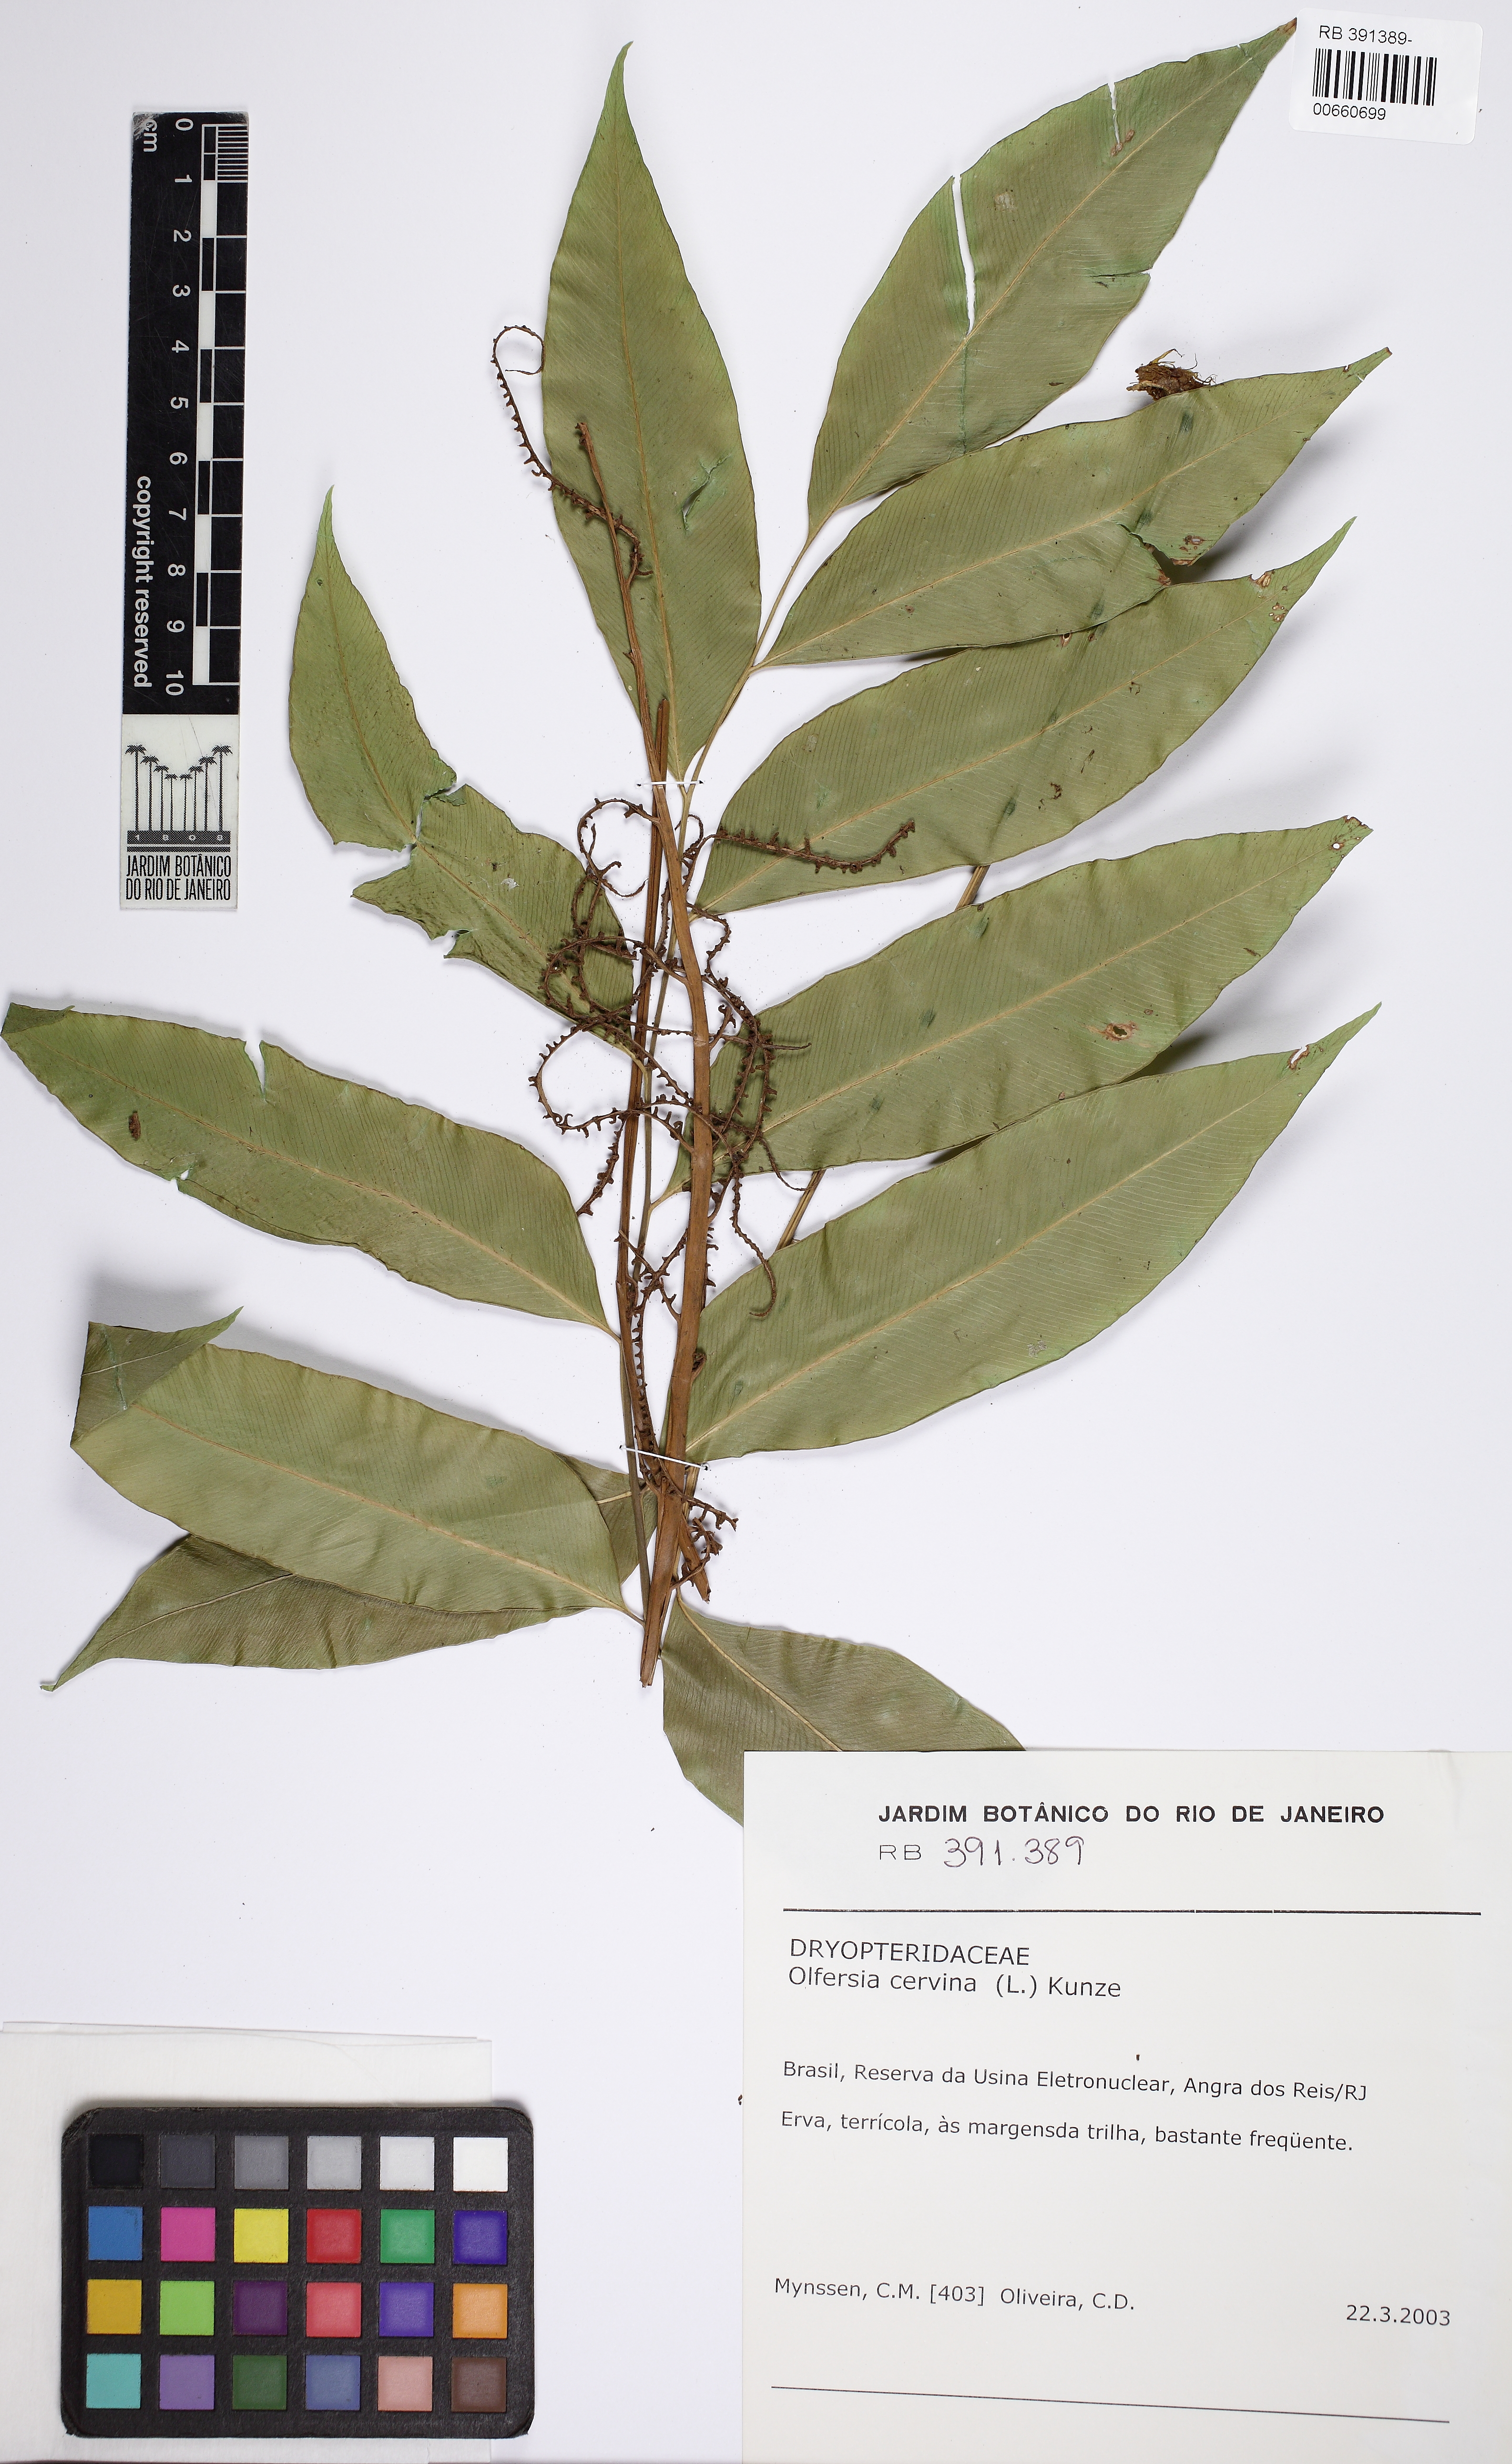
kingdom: Plantae
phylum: Tracheophyta
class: Polypodiopsida
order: Polypodiales
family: Dryopteridaceae
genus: Olfersia
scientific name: Olfersia cervina
